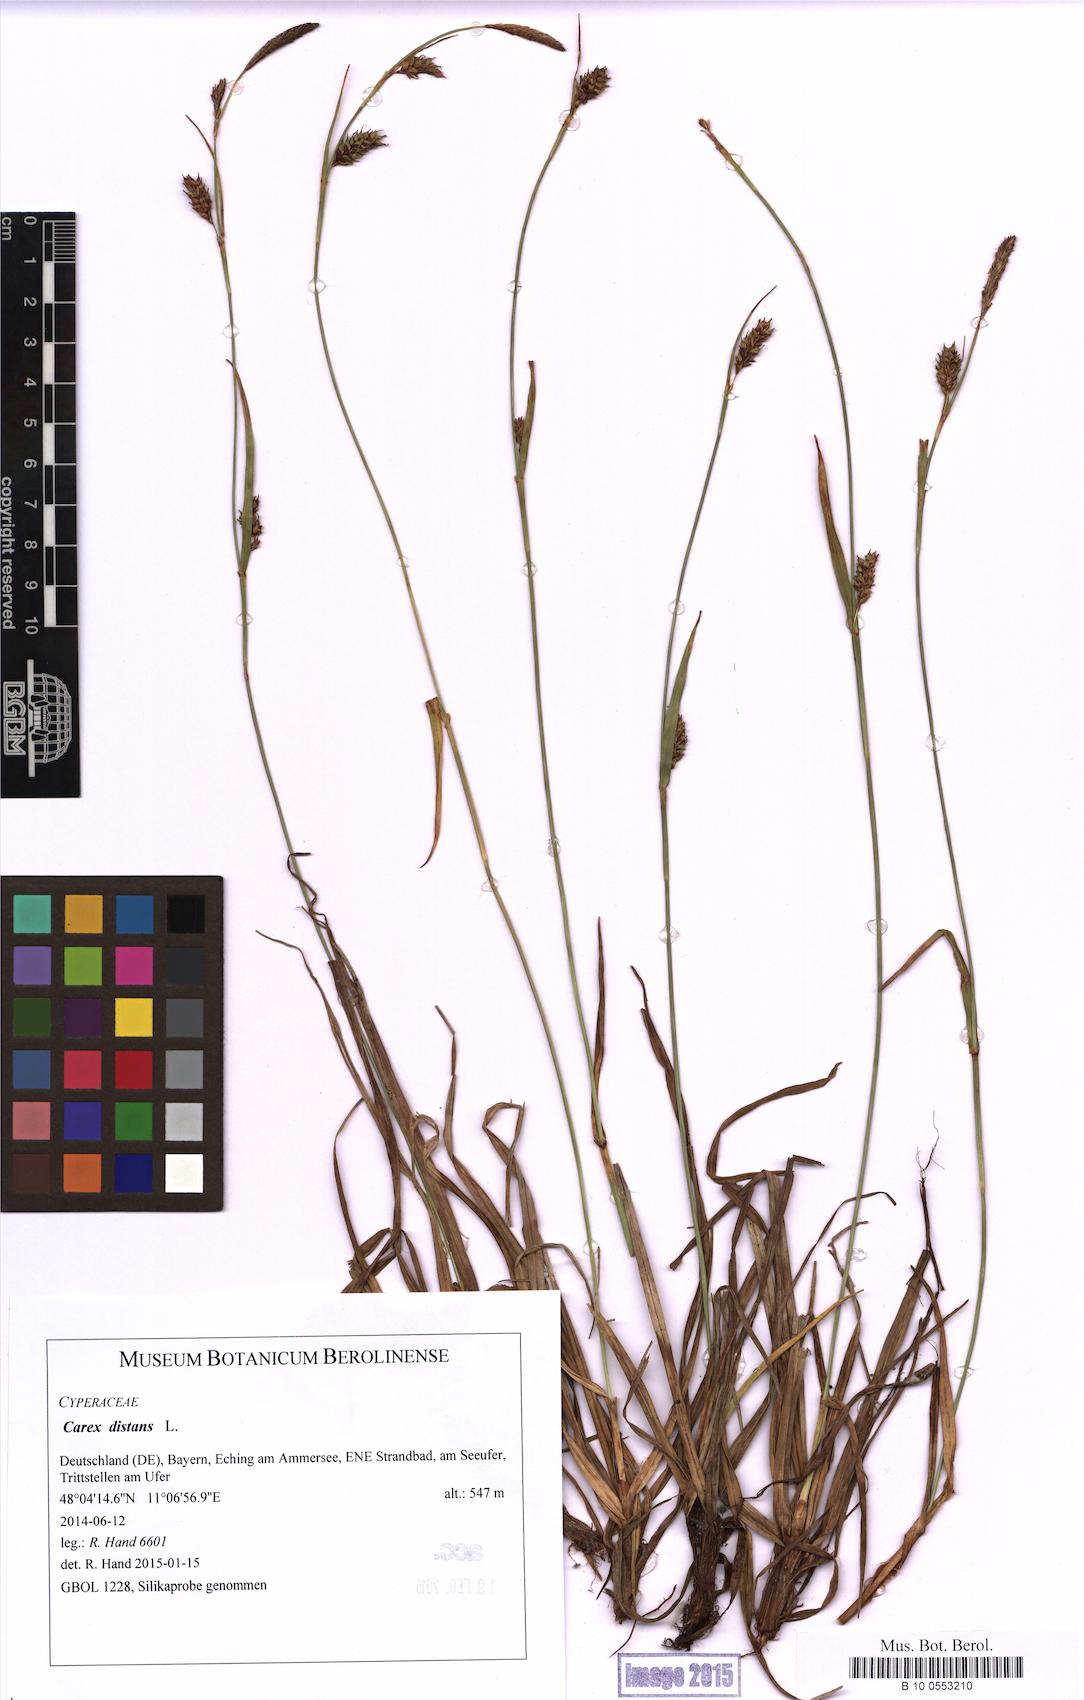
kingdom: Plantae
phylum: Tracheophyta
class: Liliopsida
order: Poales
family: Cyperaceae
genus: Carex
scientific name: Carex distans
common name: Distant sedge
